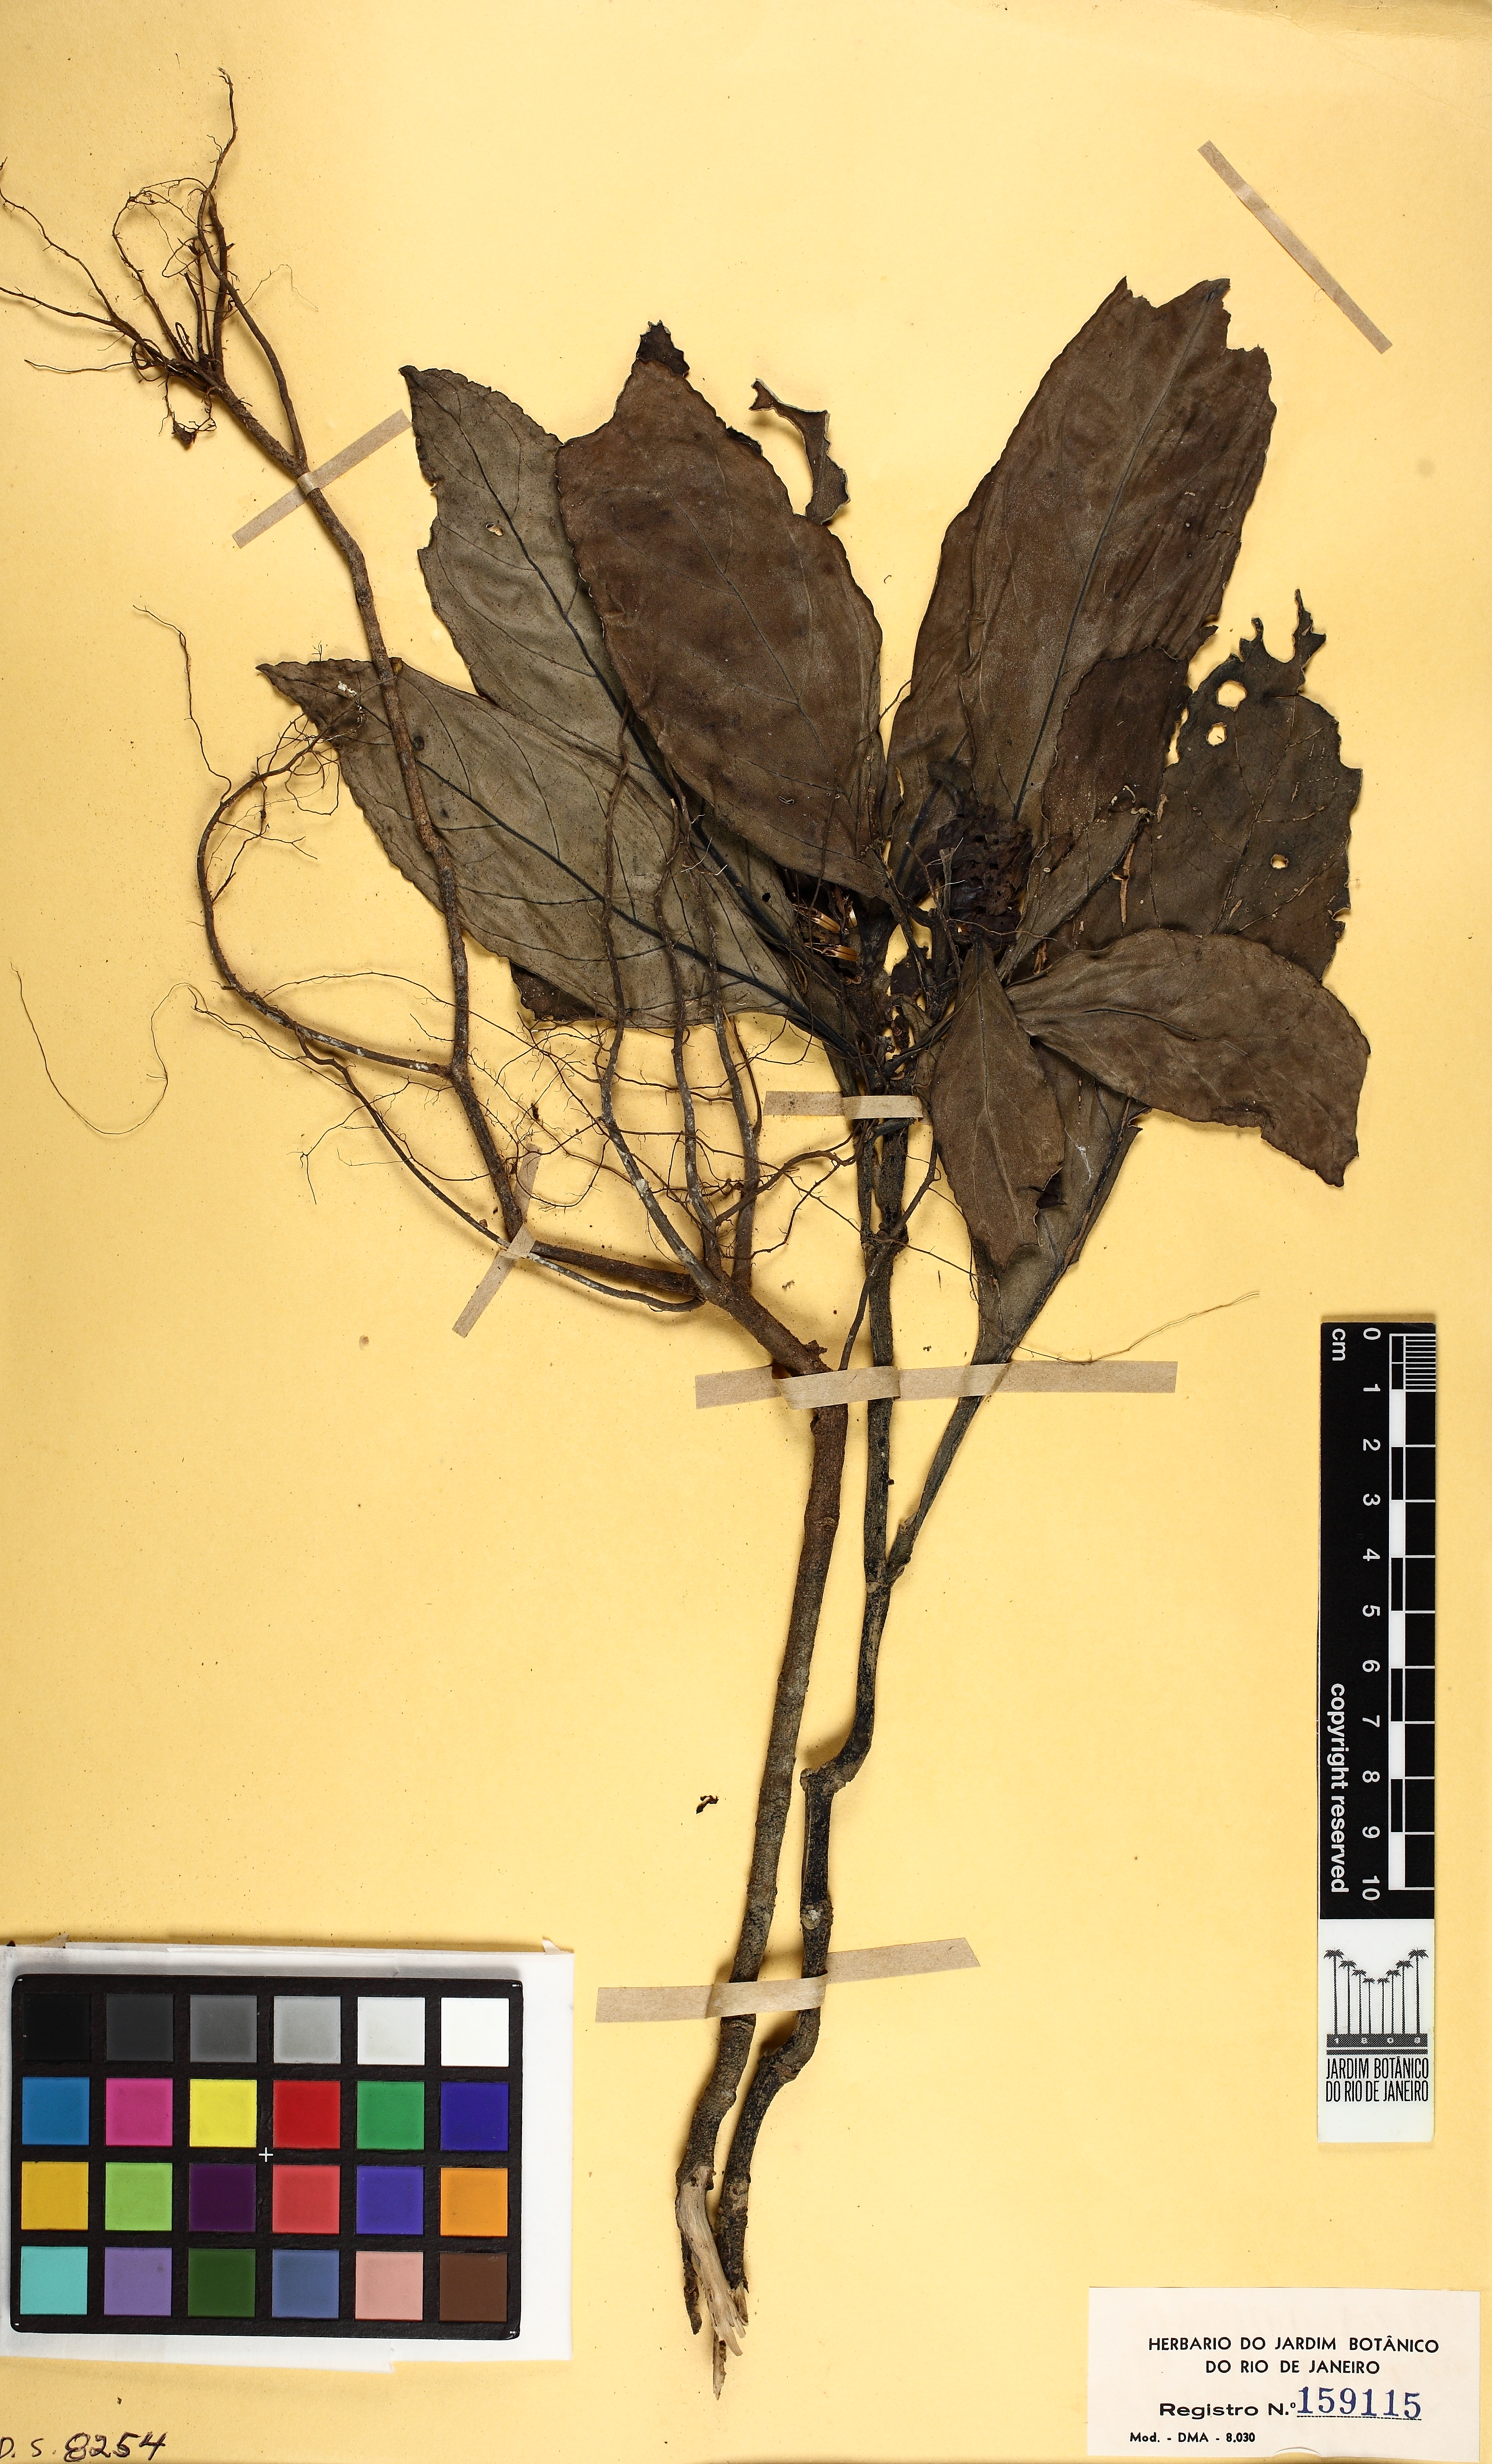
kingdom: Plantae
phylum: Tracheophyta
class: Magnoliopsida
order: Lamiales
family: Acanthaceae
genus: Justicia
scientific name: Justicia
